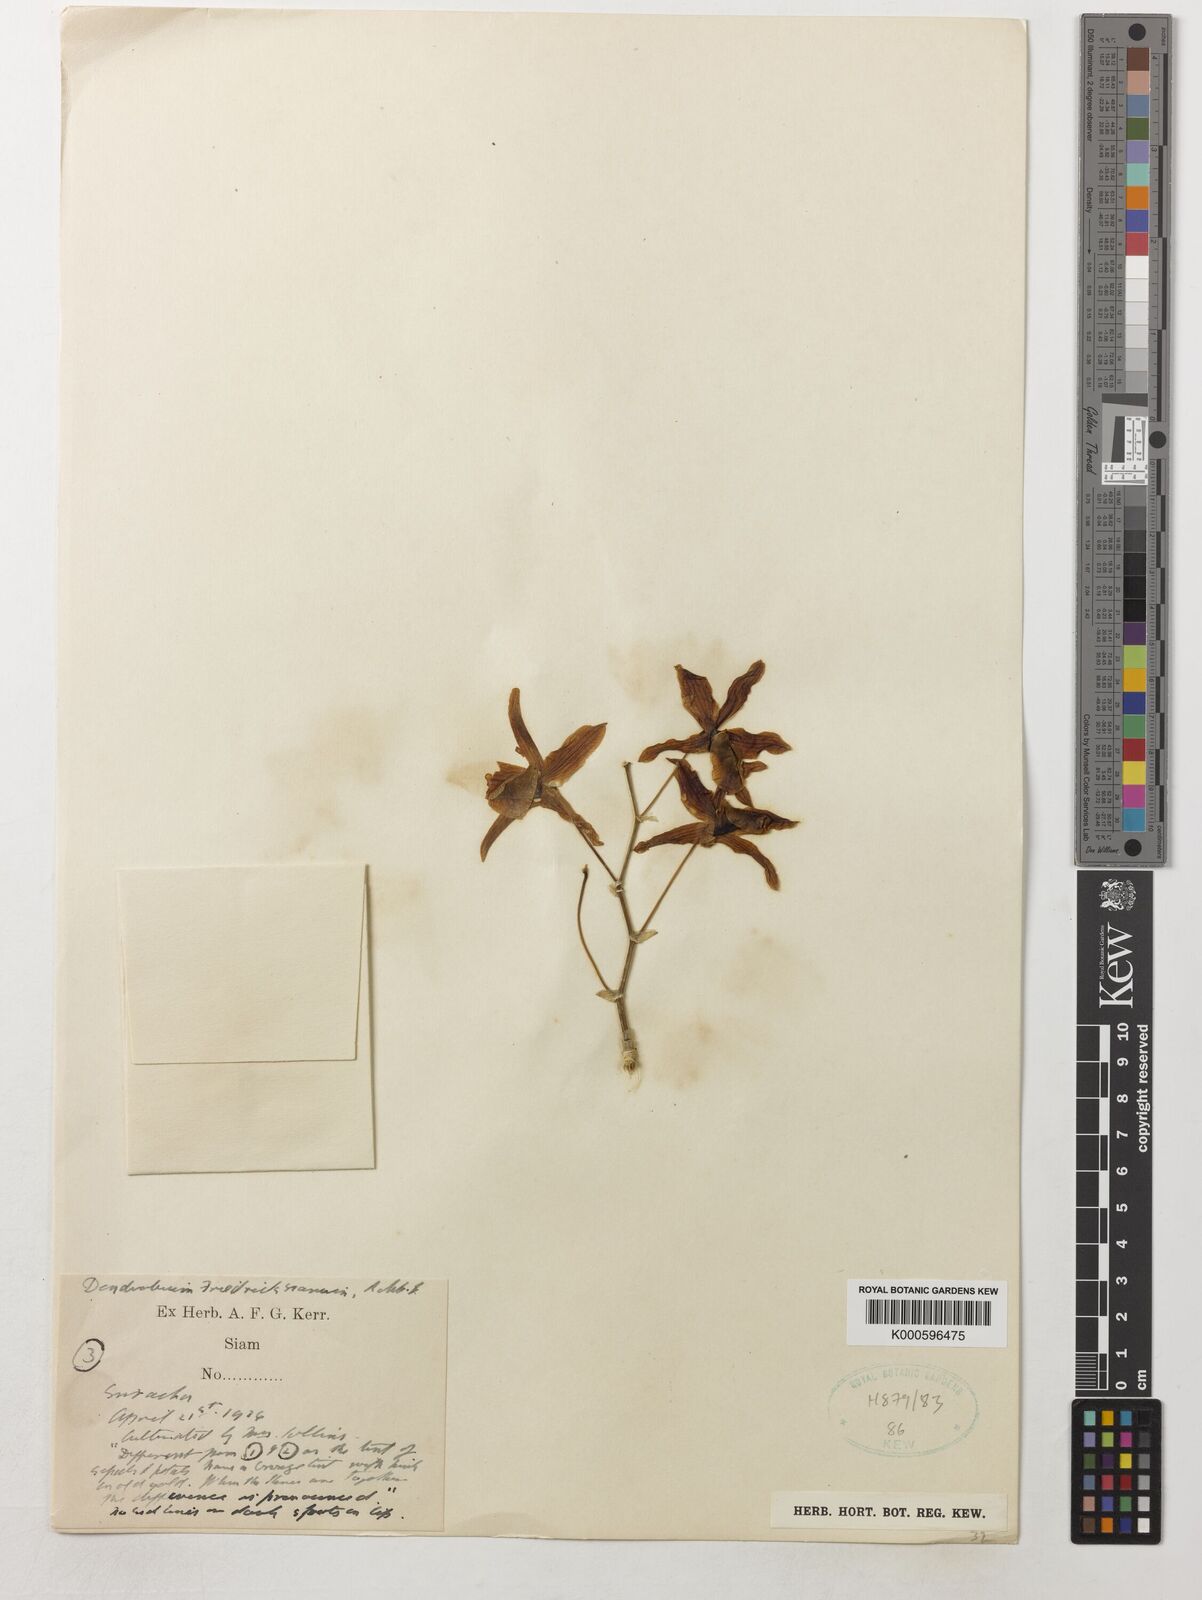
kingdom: Plantae
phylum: Tracheophyta
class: Liliopsida
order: Asparagales
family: Orchidaceae
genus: Dendrobium
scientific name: Dendrobium friedericksianum
